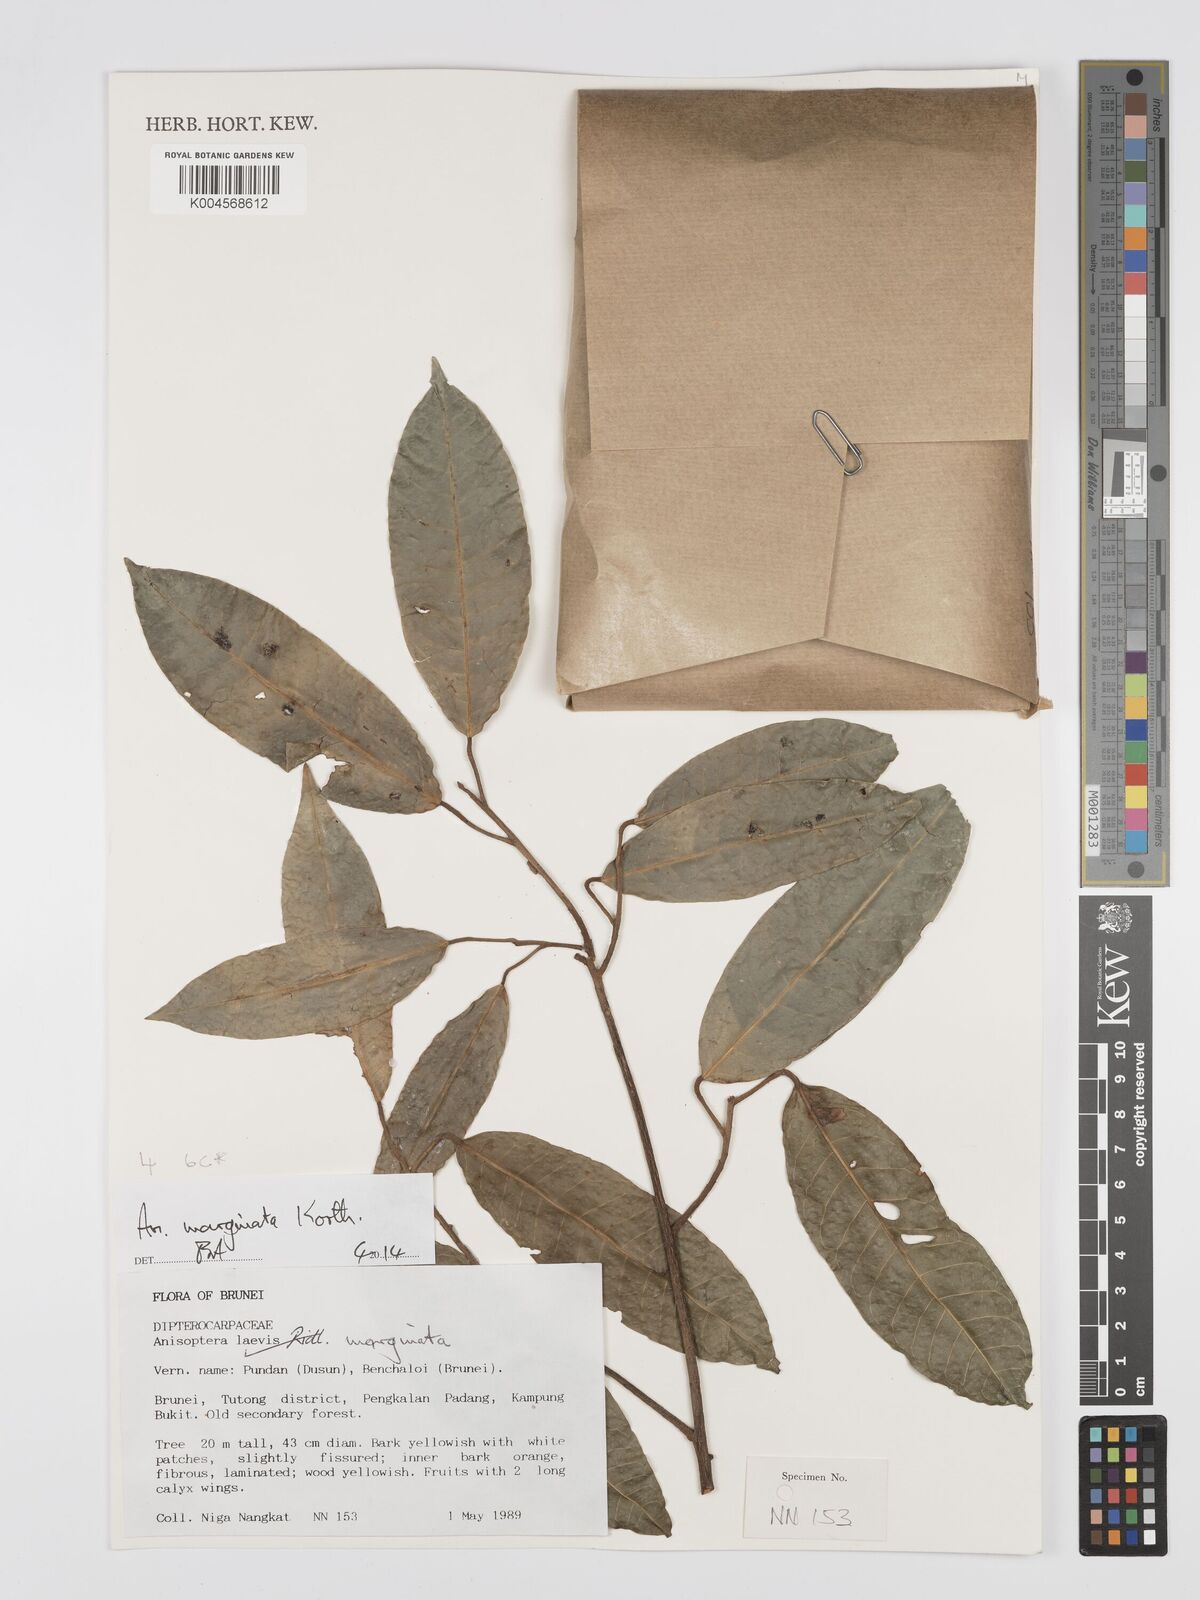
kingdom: Plantae
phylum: Tracheophyta
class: Magnoliopsida
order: Malvales
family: Dipterocarpaceae
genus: Anisoptera
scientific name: Anisoptera marginata
